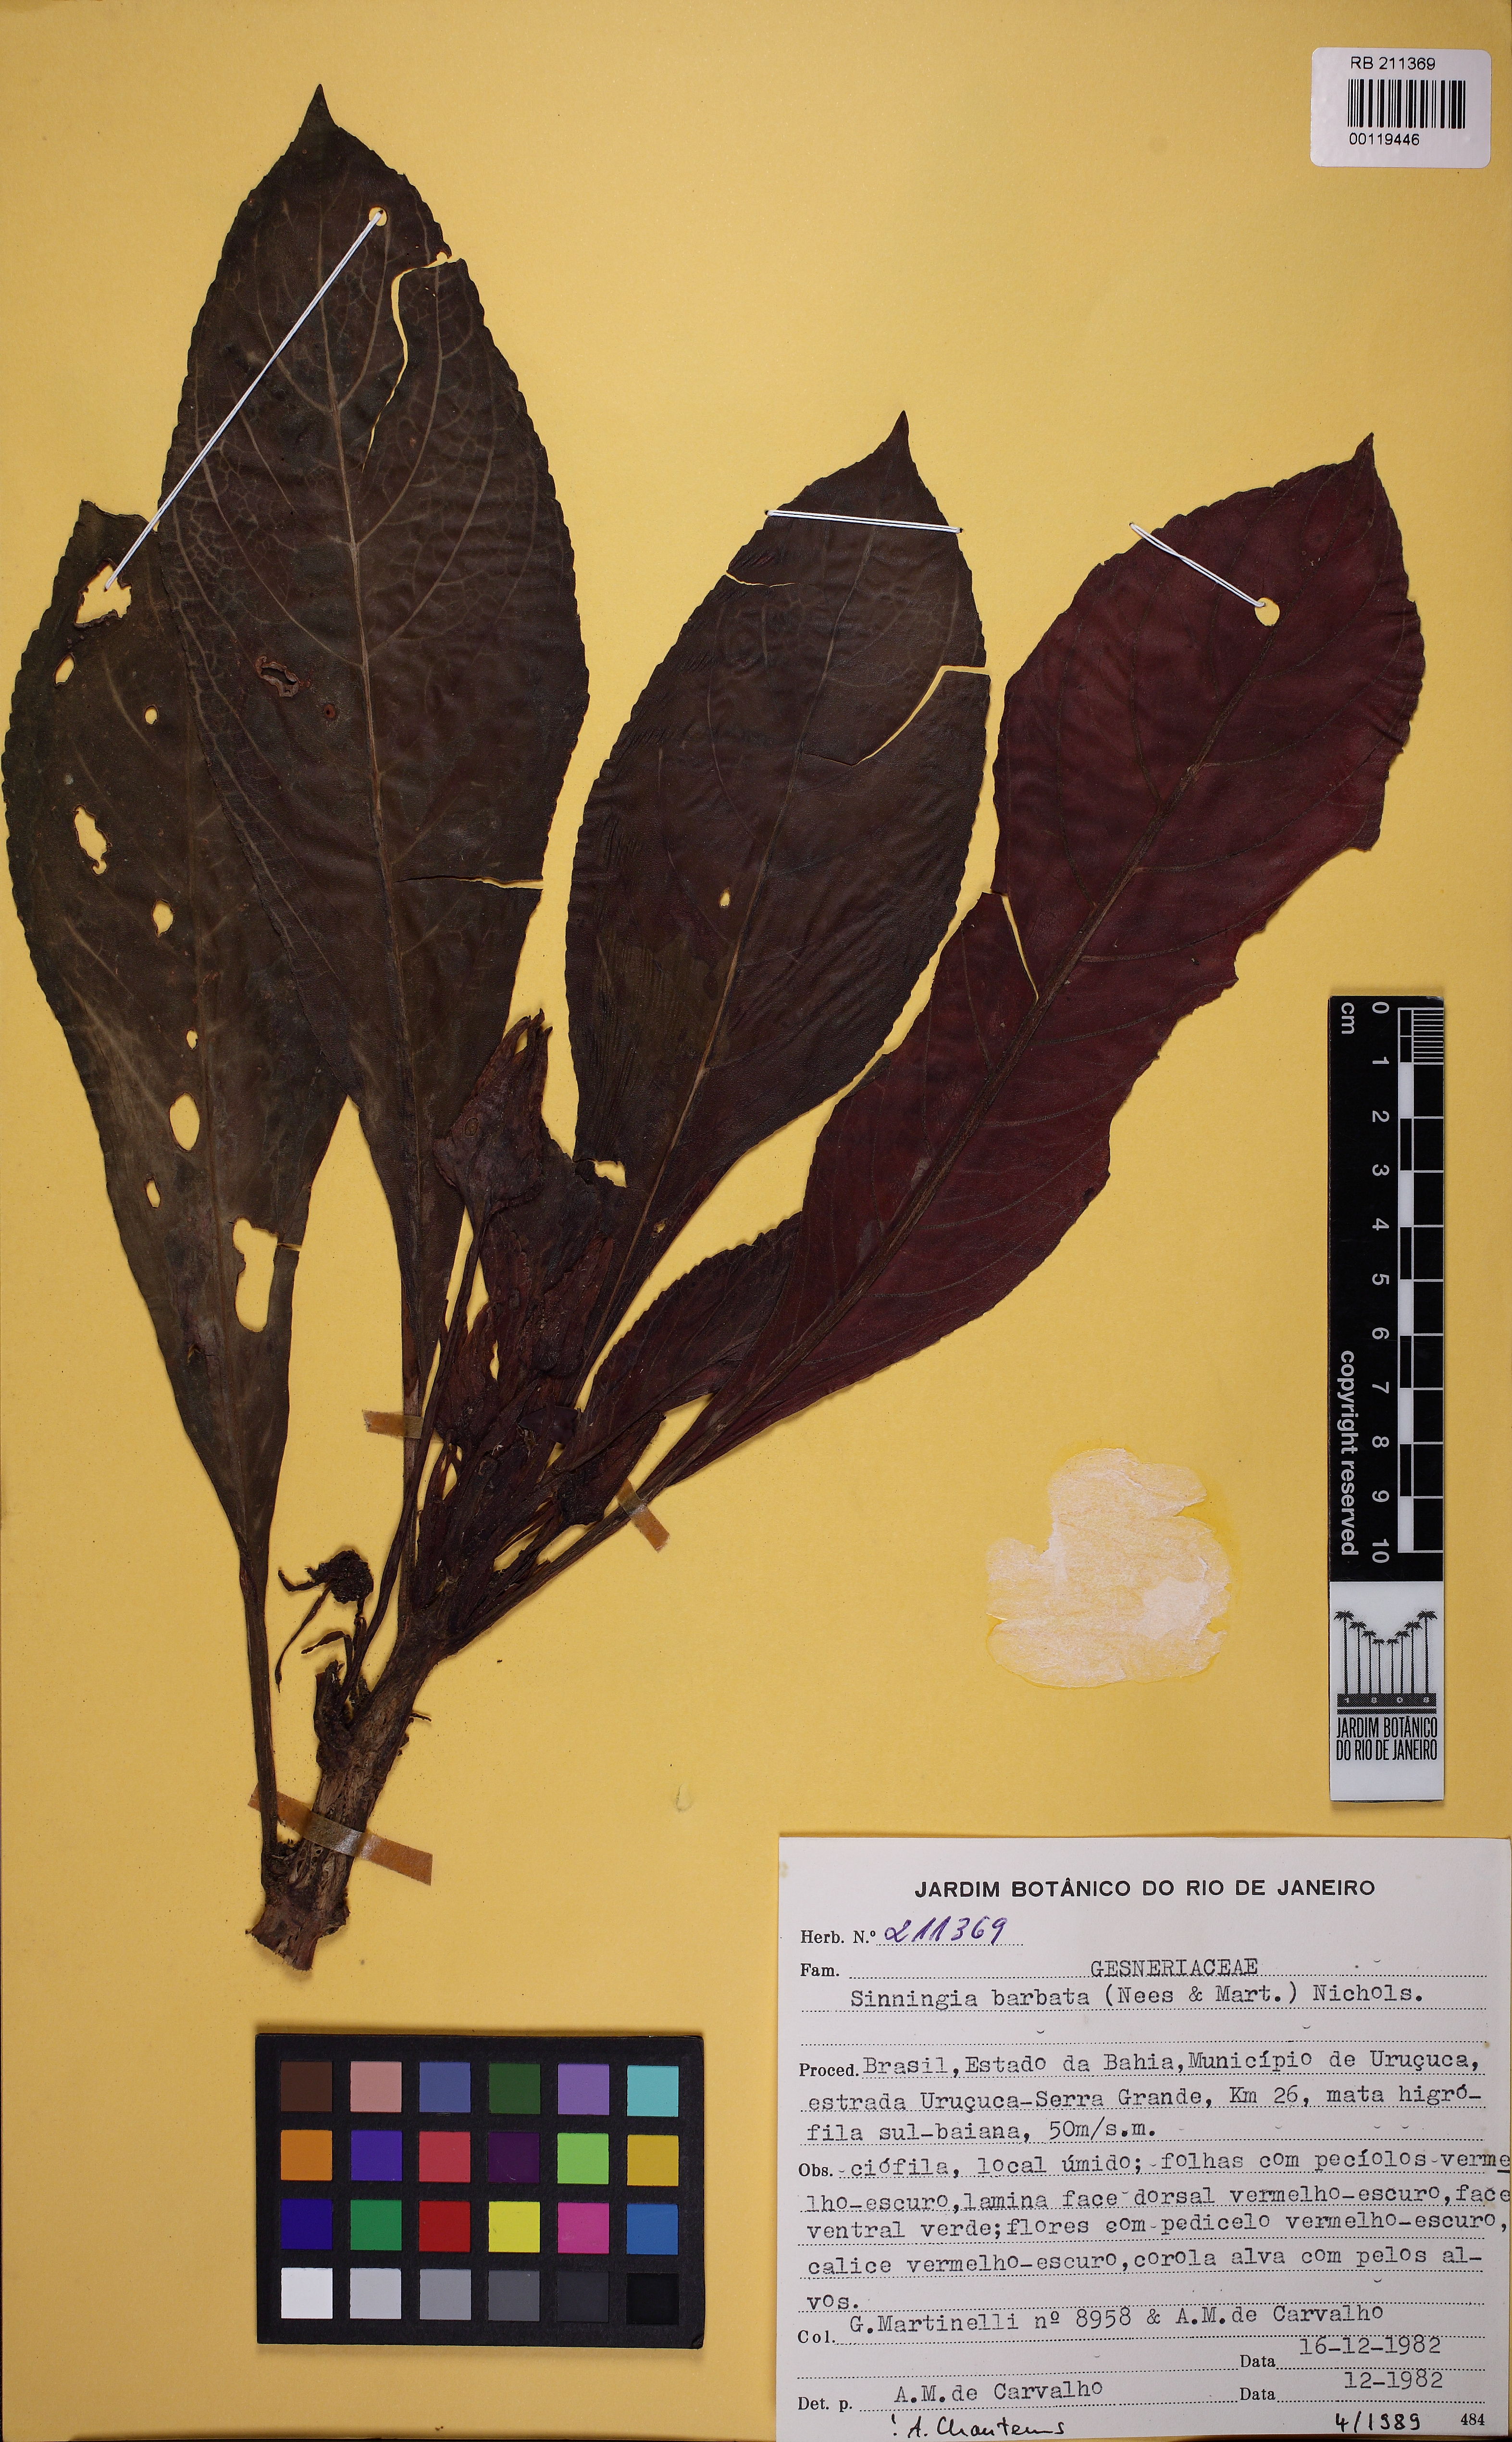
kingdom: Plantae
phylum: Tracheophyta
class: Magnoliopsida
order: Lamiales
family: Gesneriaceae
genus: Sinningia
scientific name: Sinningia barbata
